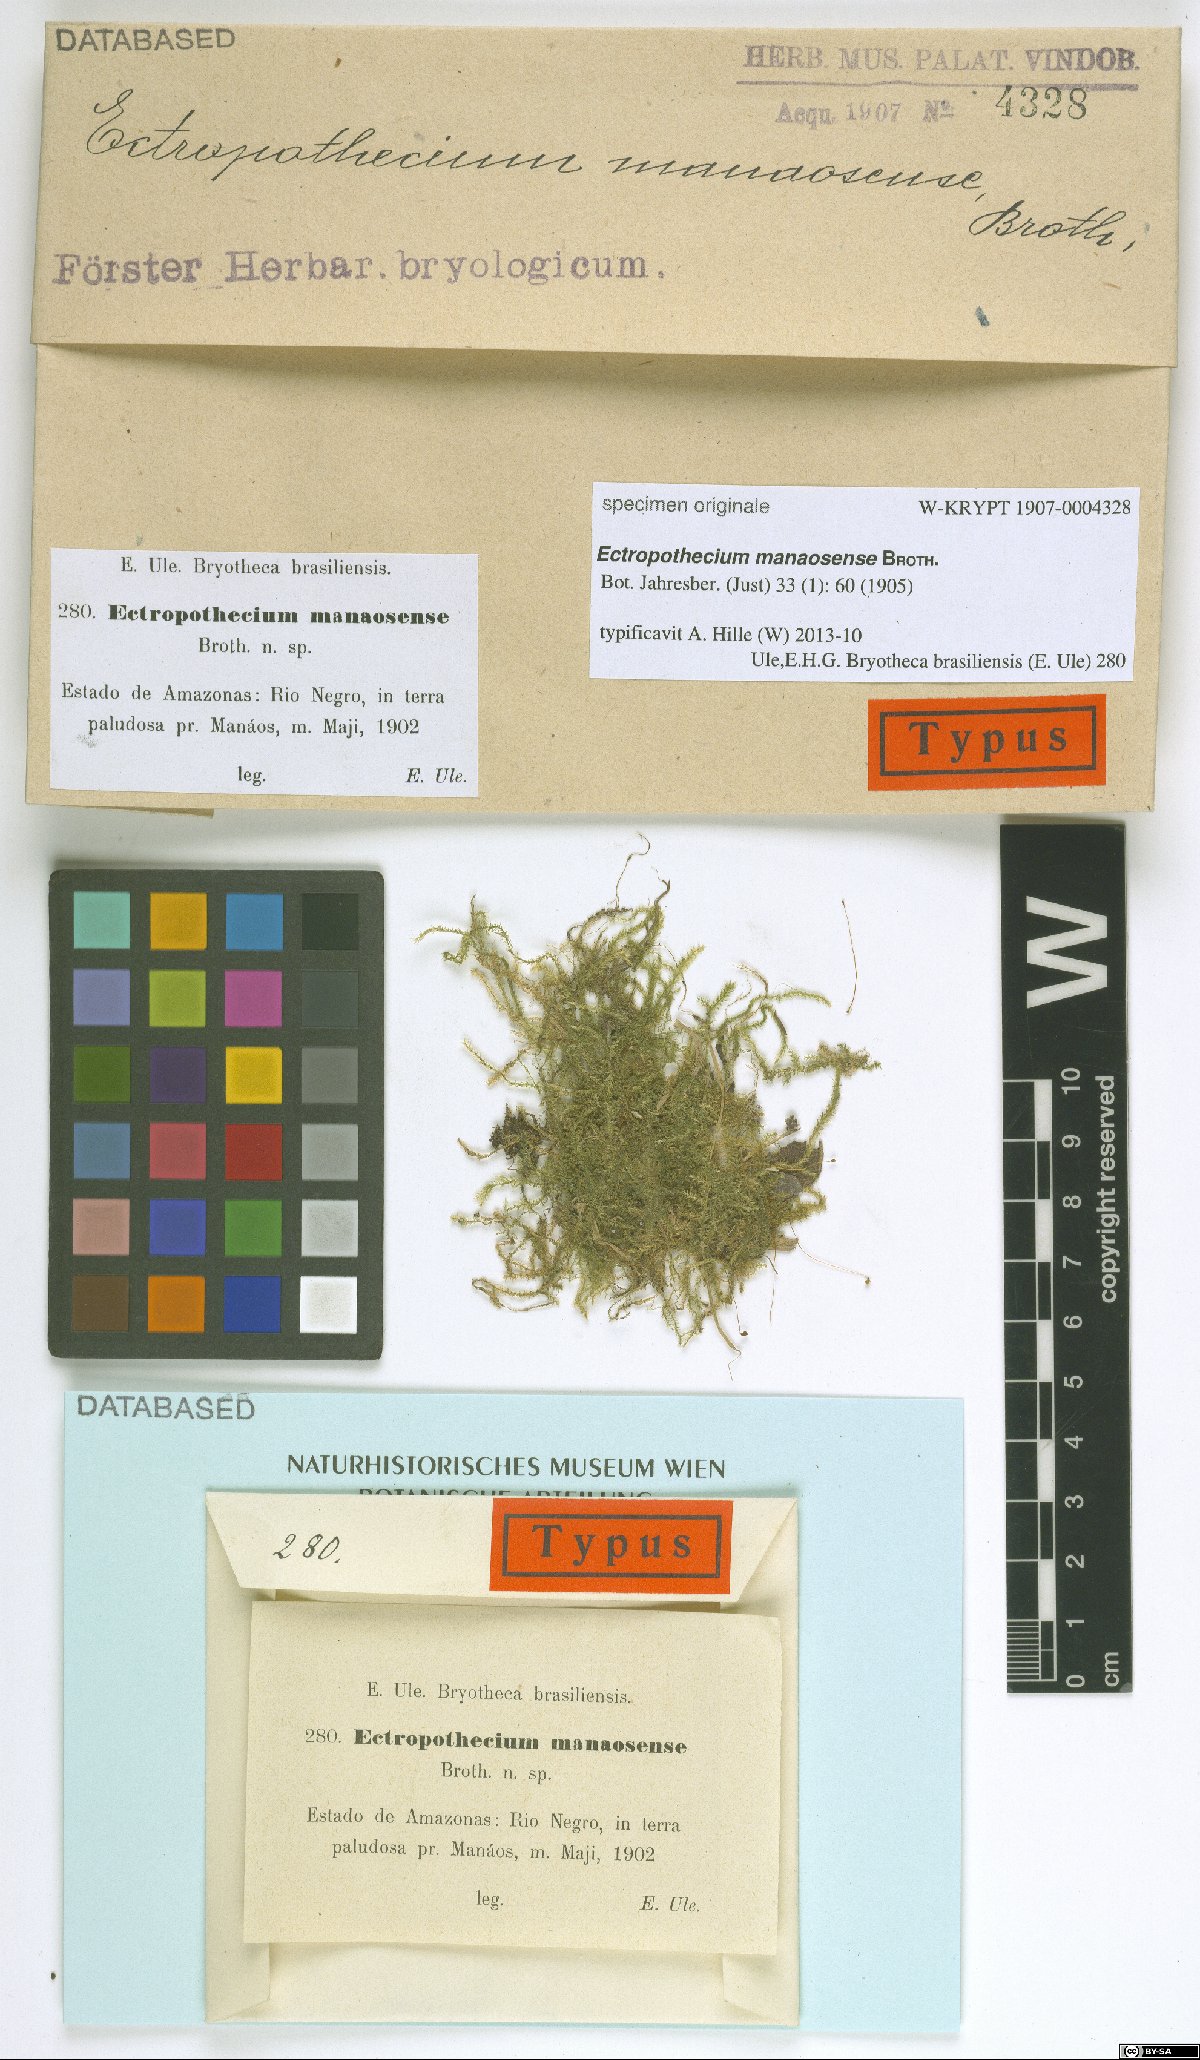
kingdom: Plantae
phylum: Bryophyta
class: Bryopsida
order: Hypnales
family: Hypnaceae
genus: Ectropothecium
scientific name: Ectropothecium
